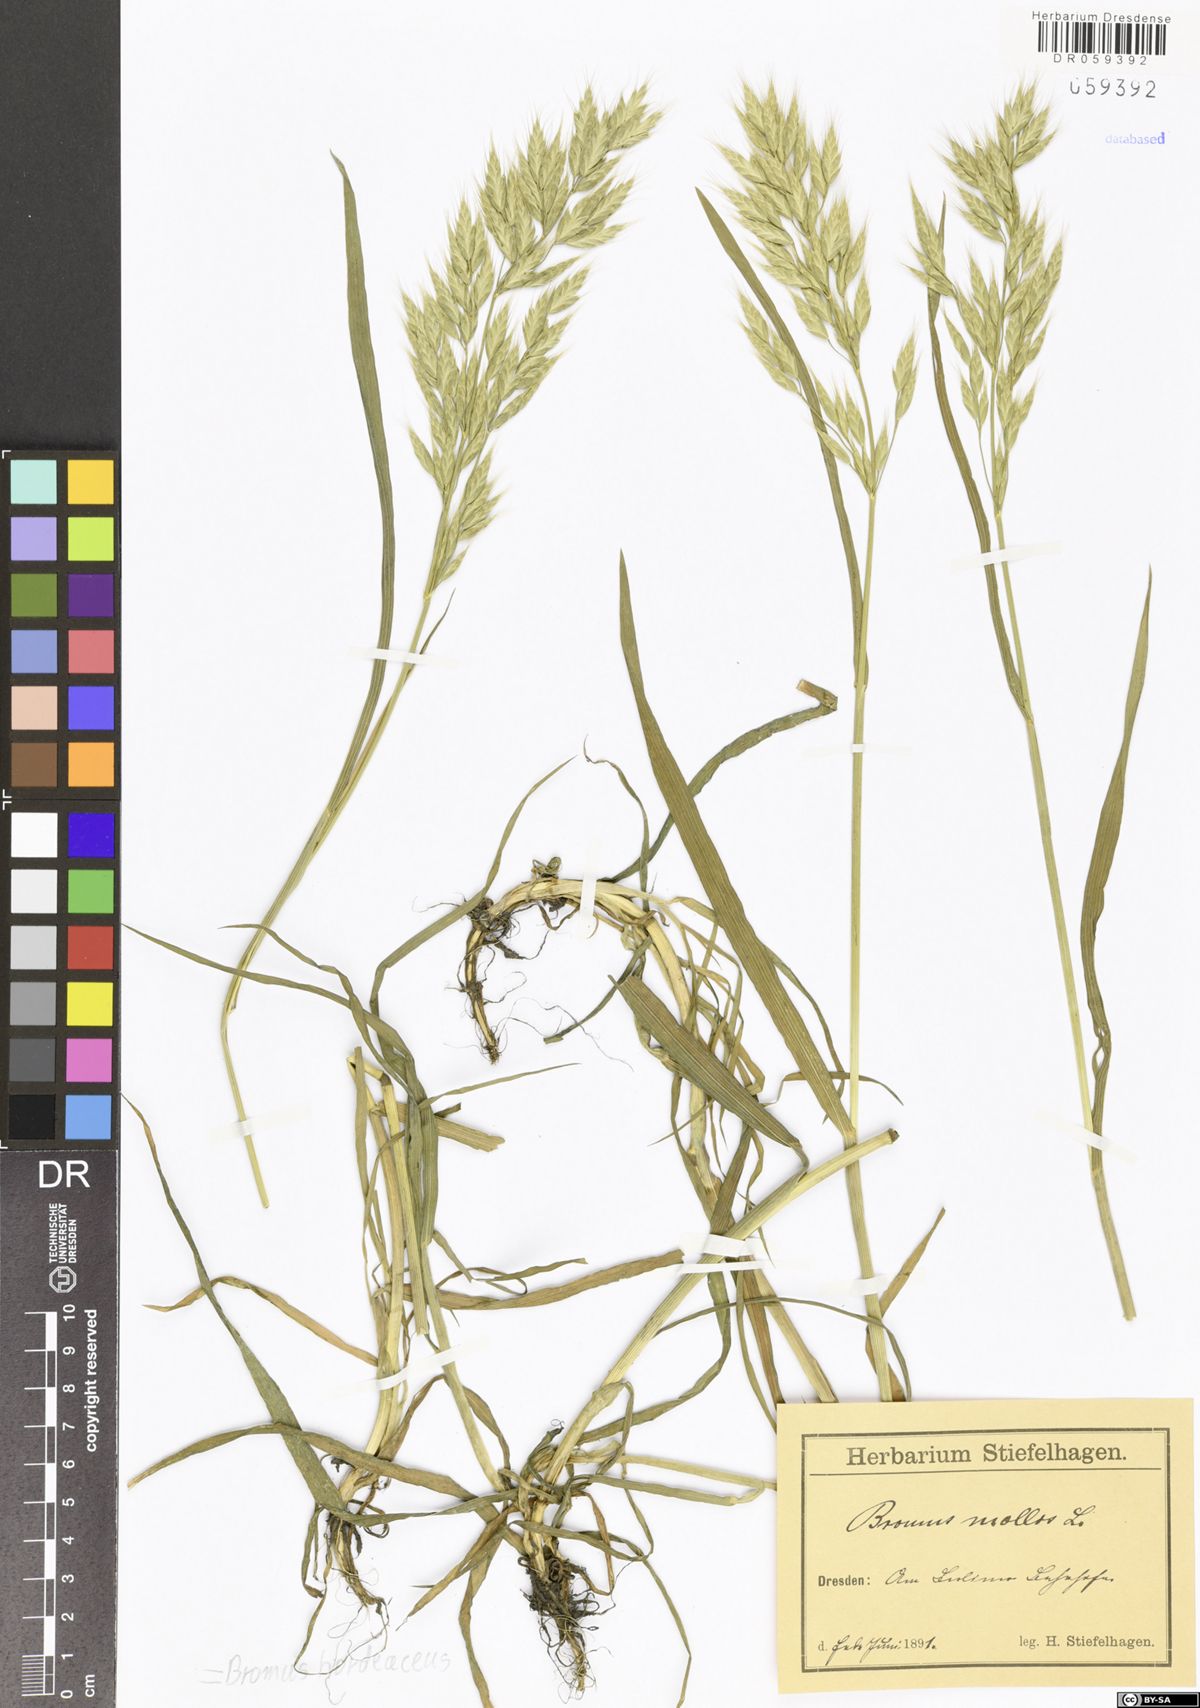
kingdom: Plantae
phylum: Tracheophyta
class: Liliopsida
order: Poales
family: Poaceae
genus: Bromus
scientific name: Bromus hordeaceus
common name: Soft brome
